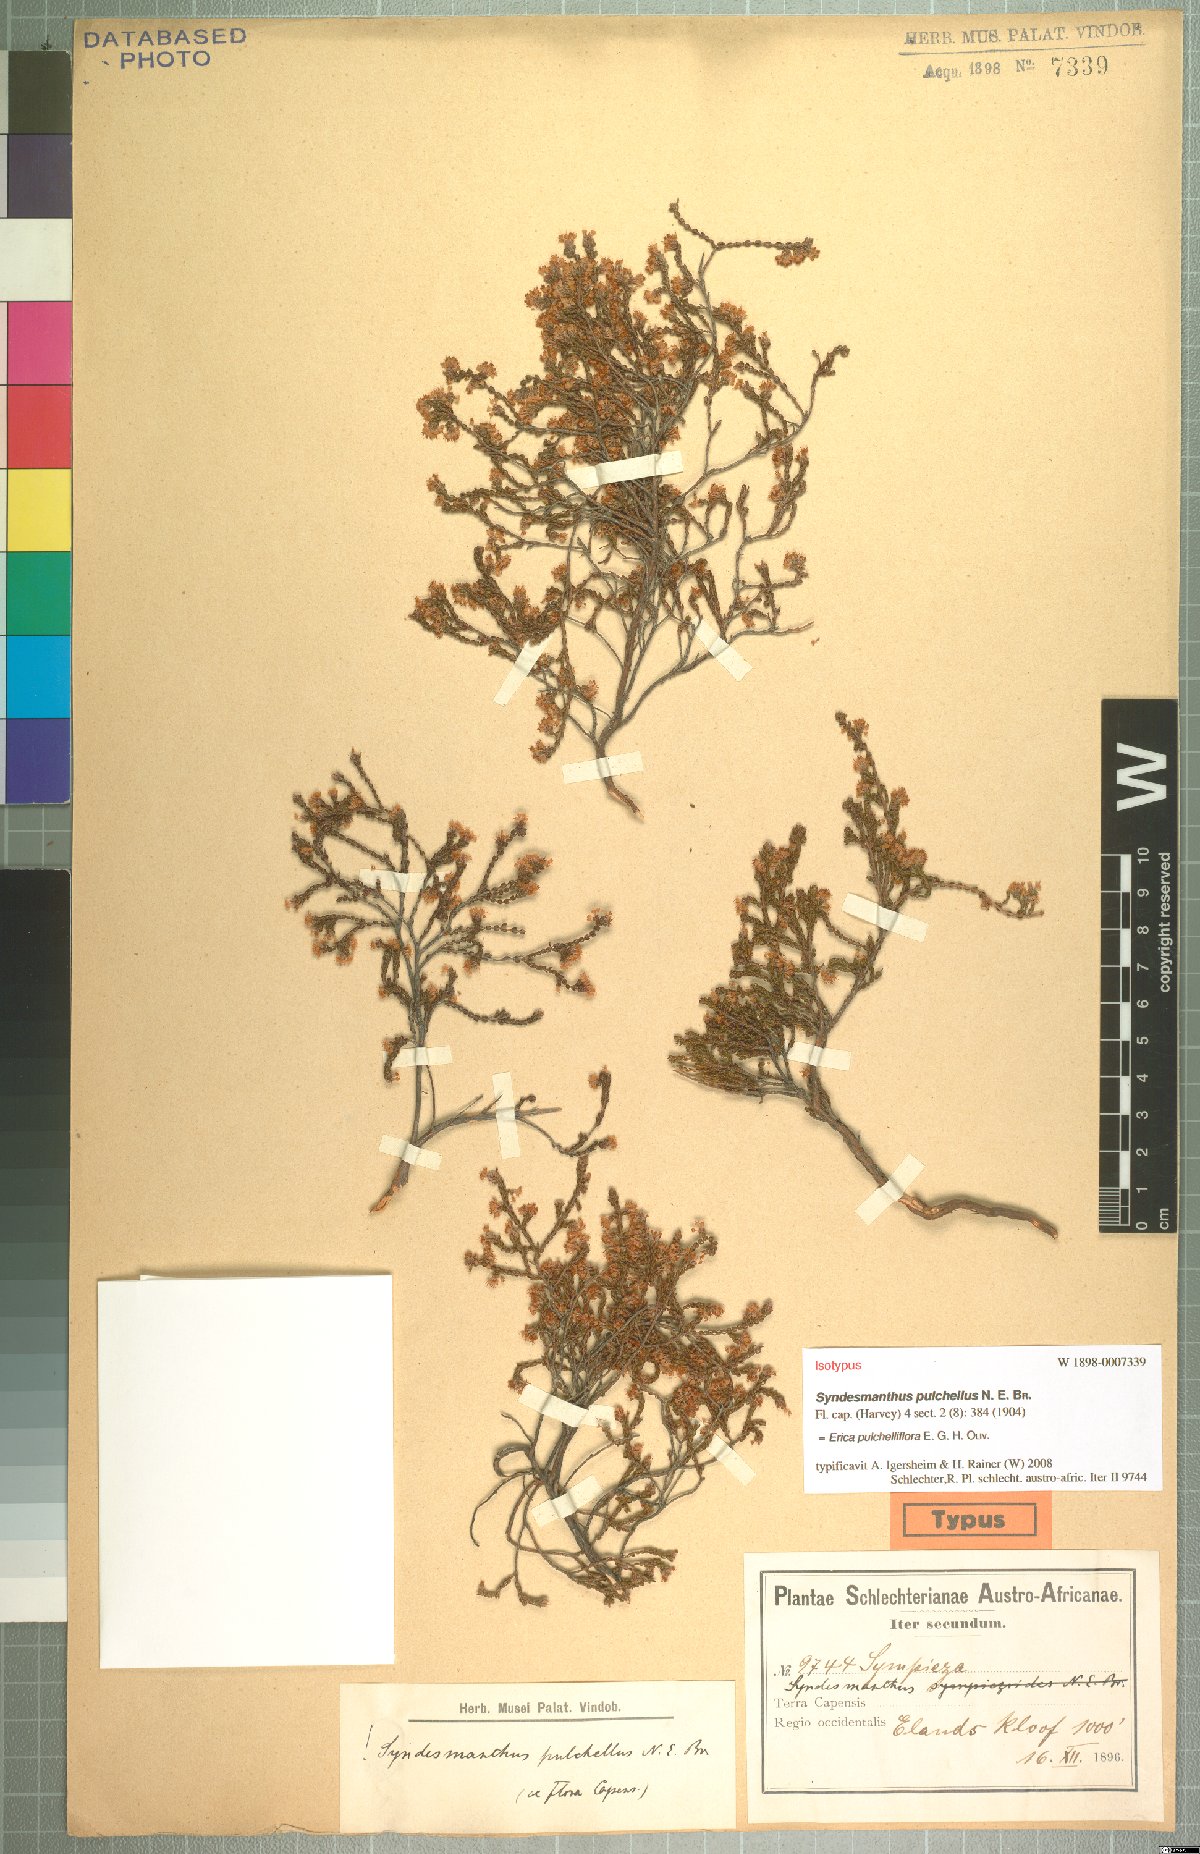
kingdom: Plantae
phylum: Tracheophyta
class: Magnoliopsida
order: Ericales
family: Ericaceae
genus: Erica
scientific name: Erica pulchelliflora
